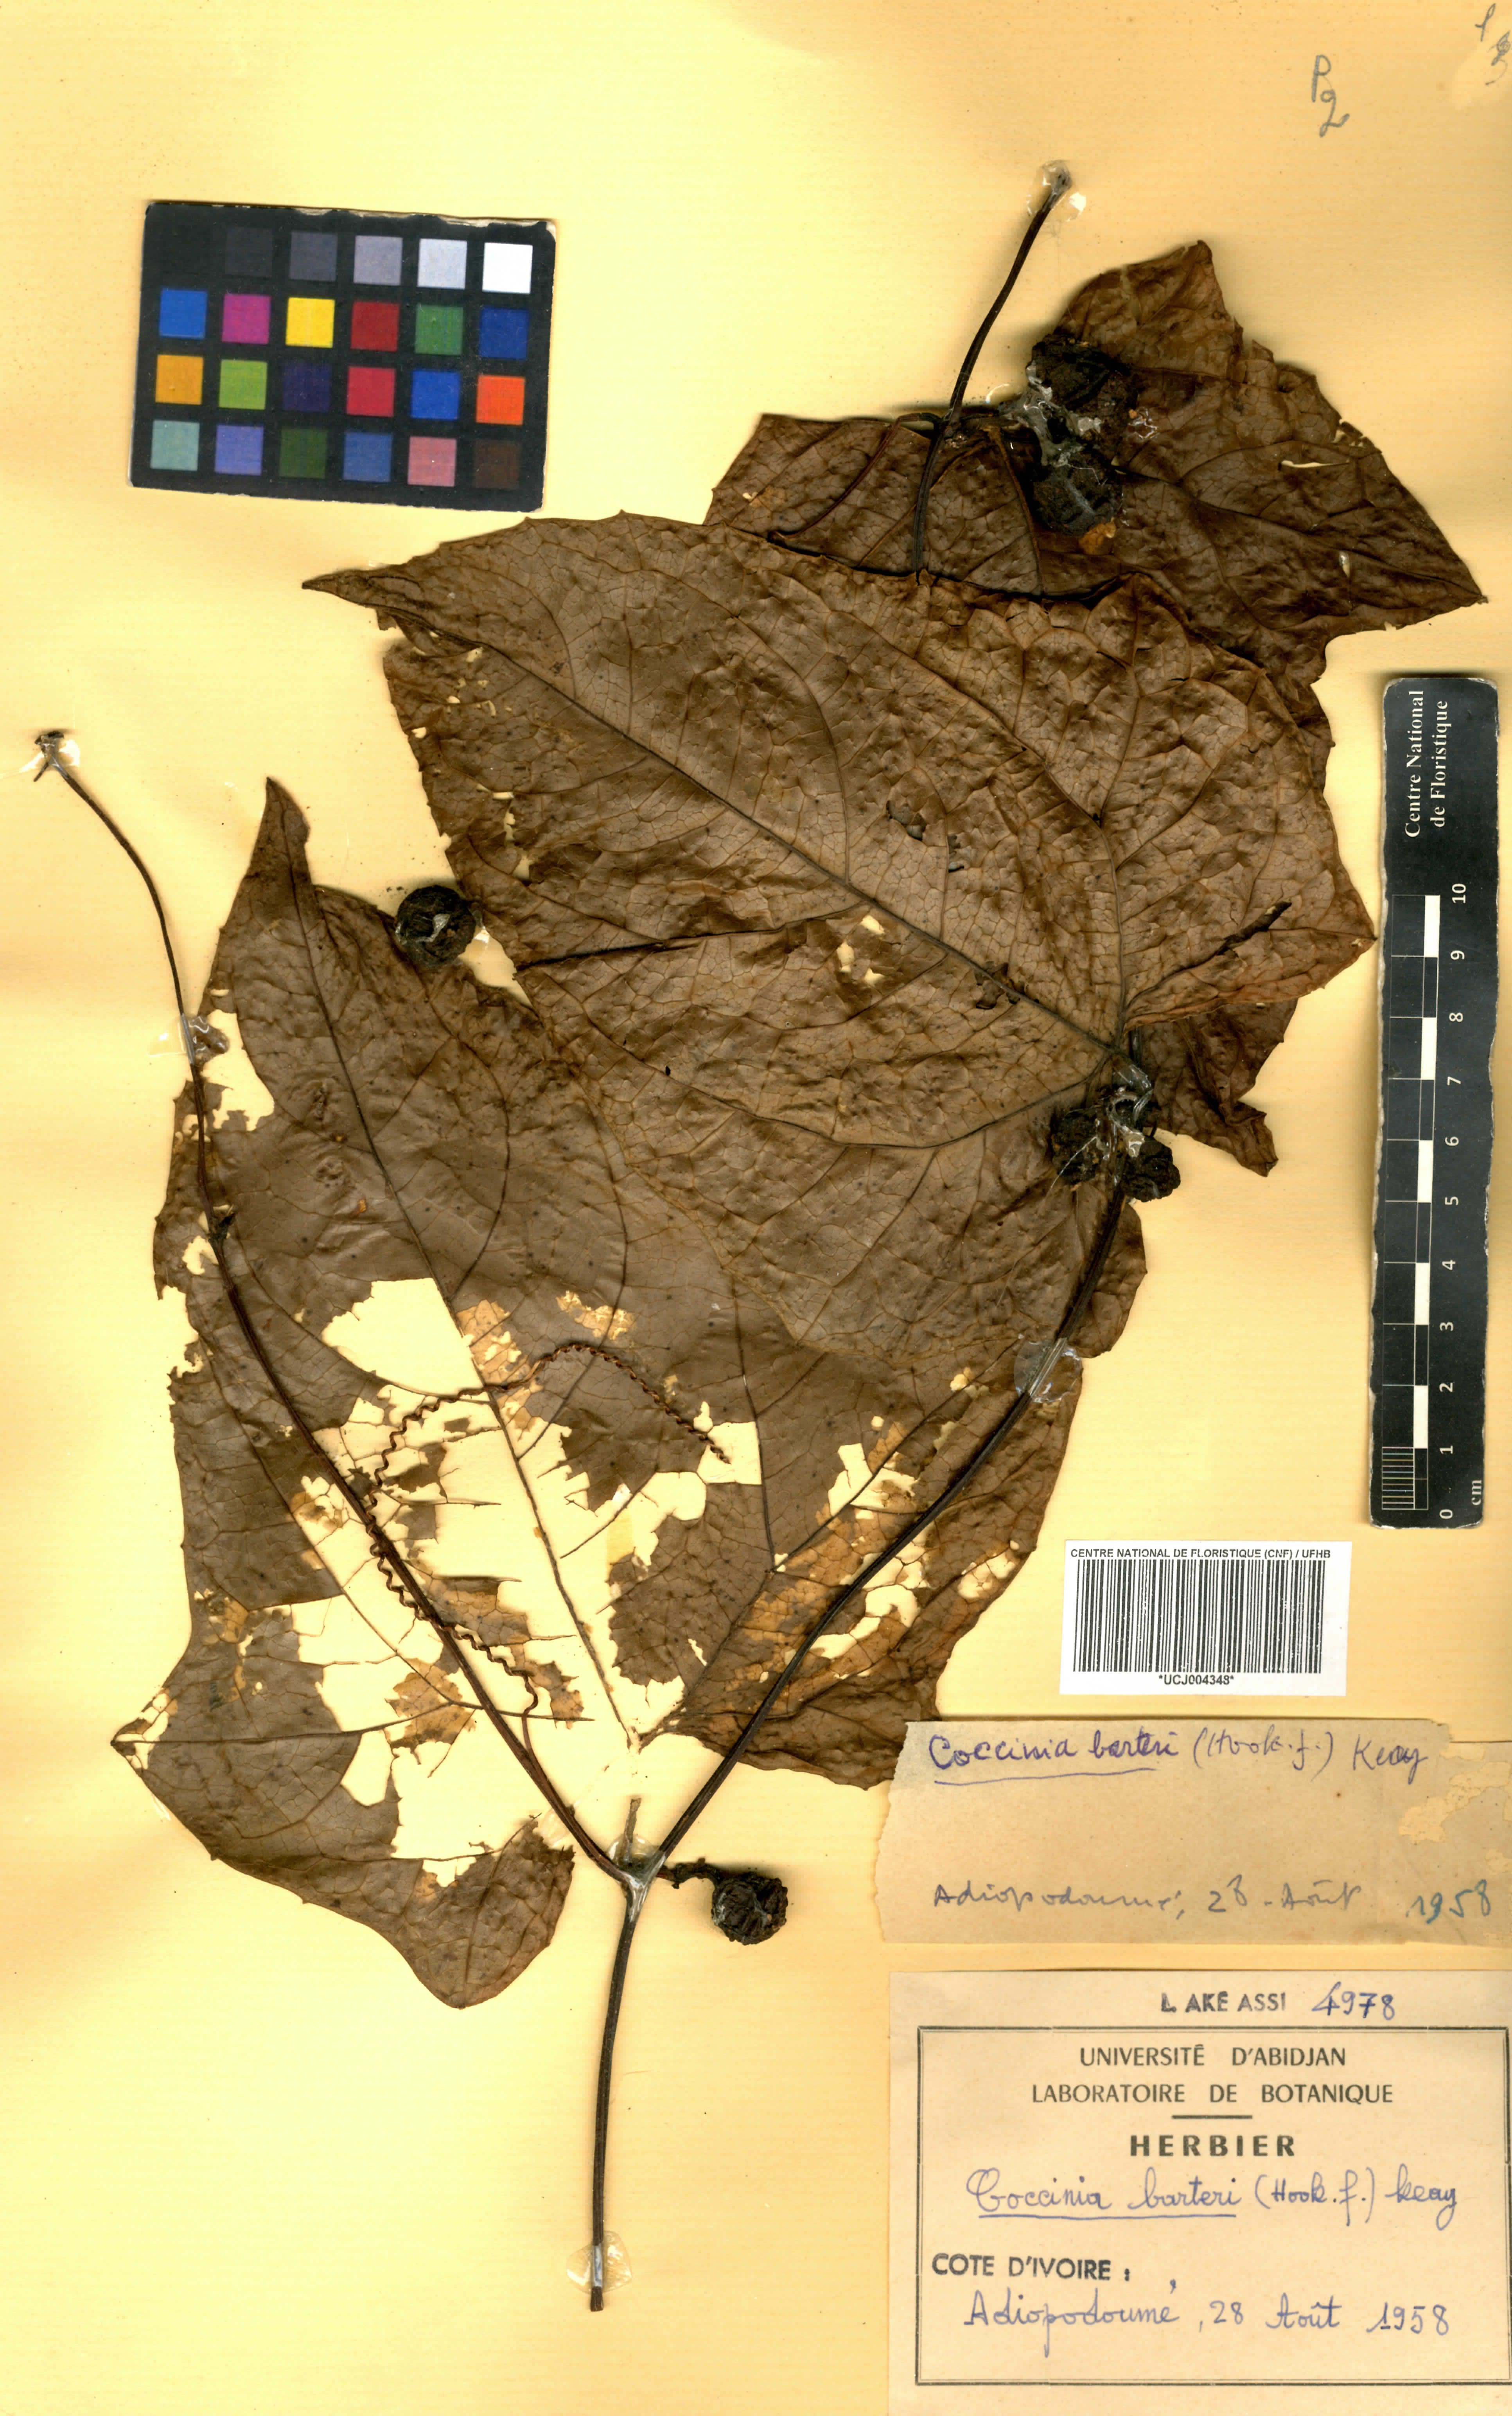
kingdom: Plantae
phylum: Tracheophyta
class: Magnoliopsida
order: Cucurbitales
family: Cucurbitaceae
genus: Coccinia
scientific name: Coccinia barteri
